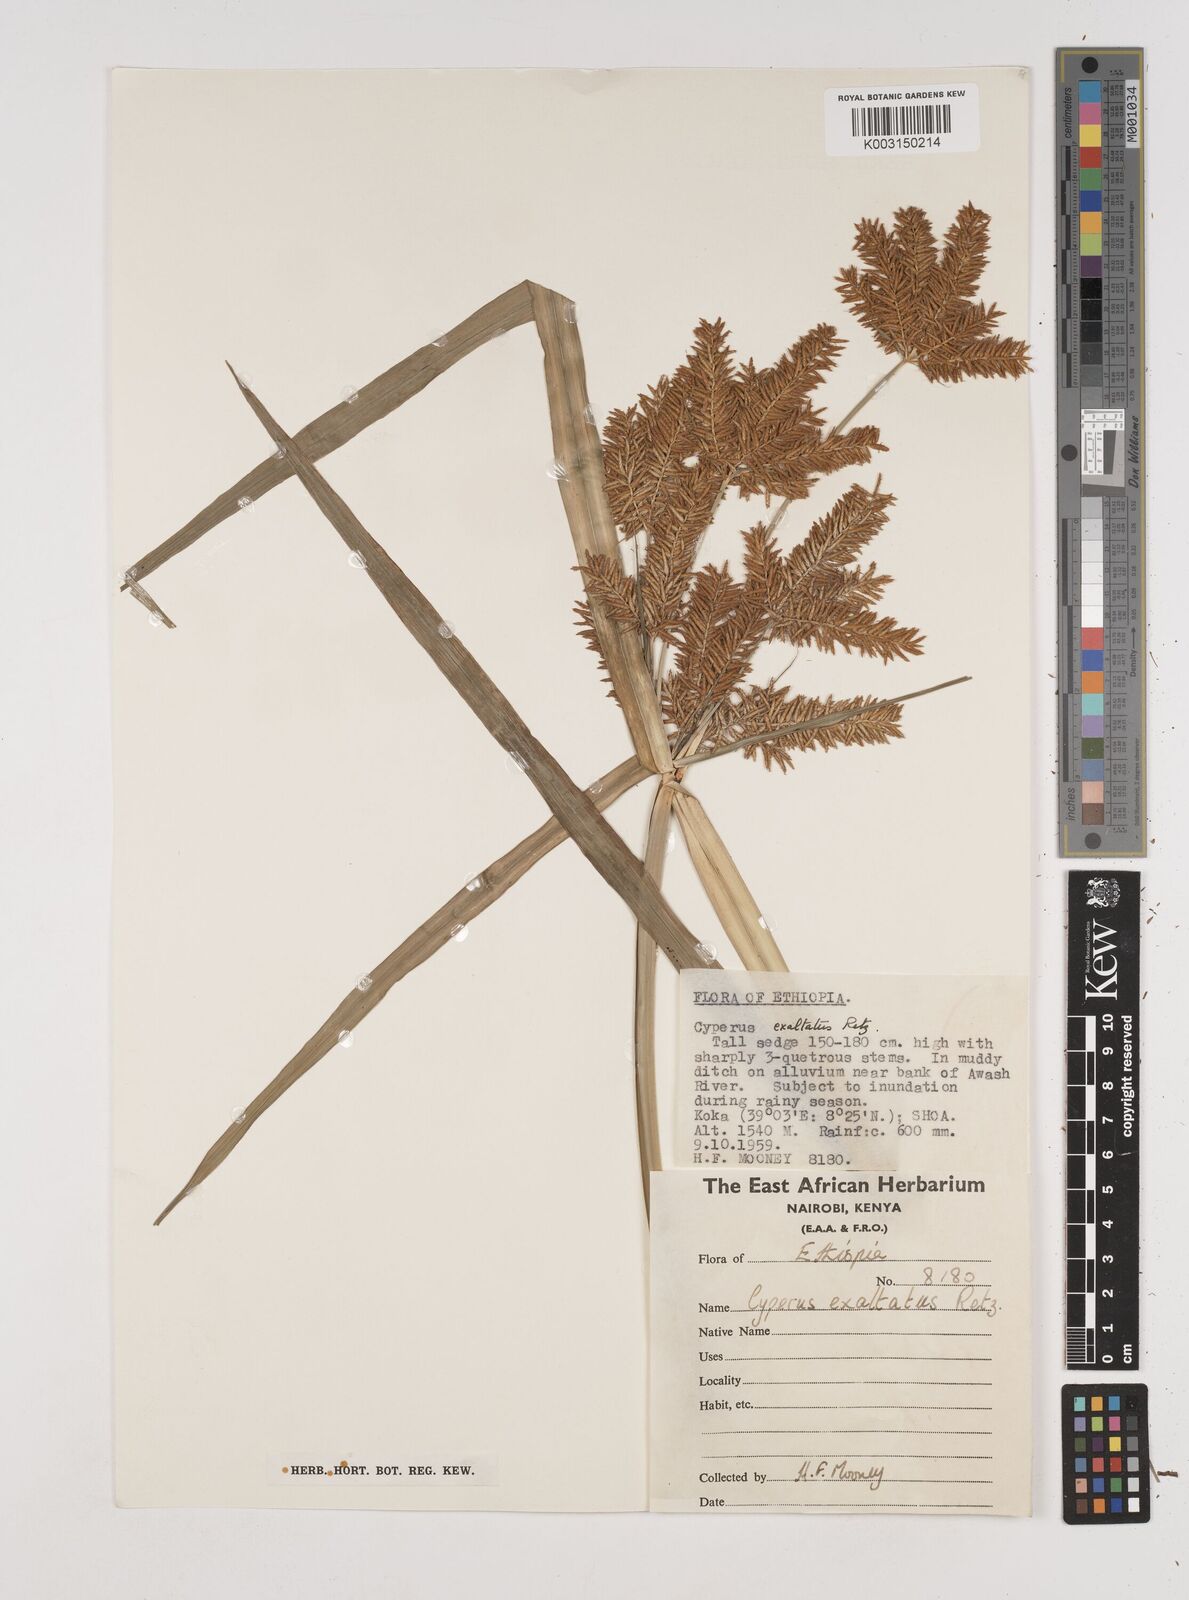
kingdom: Plantae
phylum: Tracheophyta
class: Liliopsida
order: Poales
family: Cyperaceae
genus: Cyperus
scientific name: Cyperus digitatus
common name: Finger flatsedge
